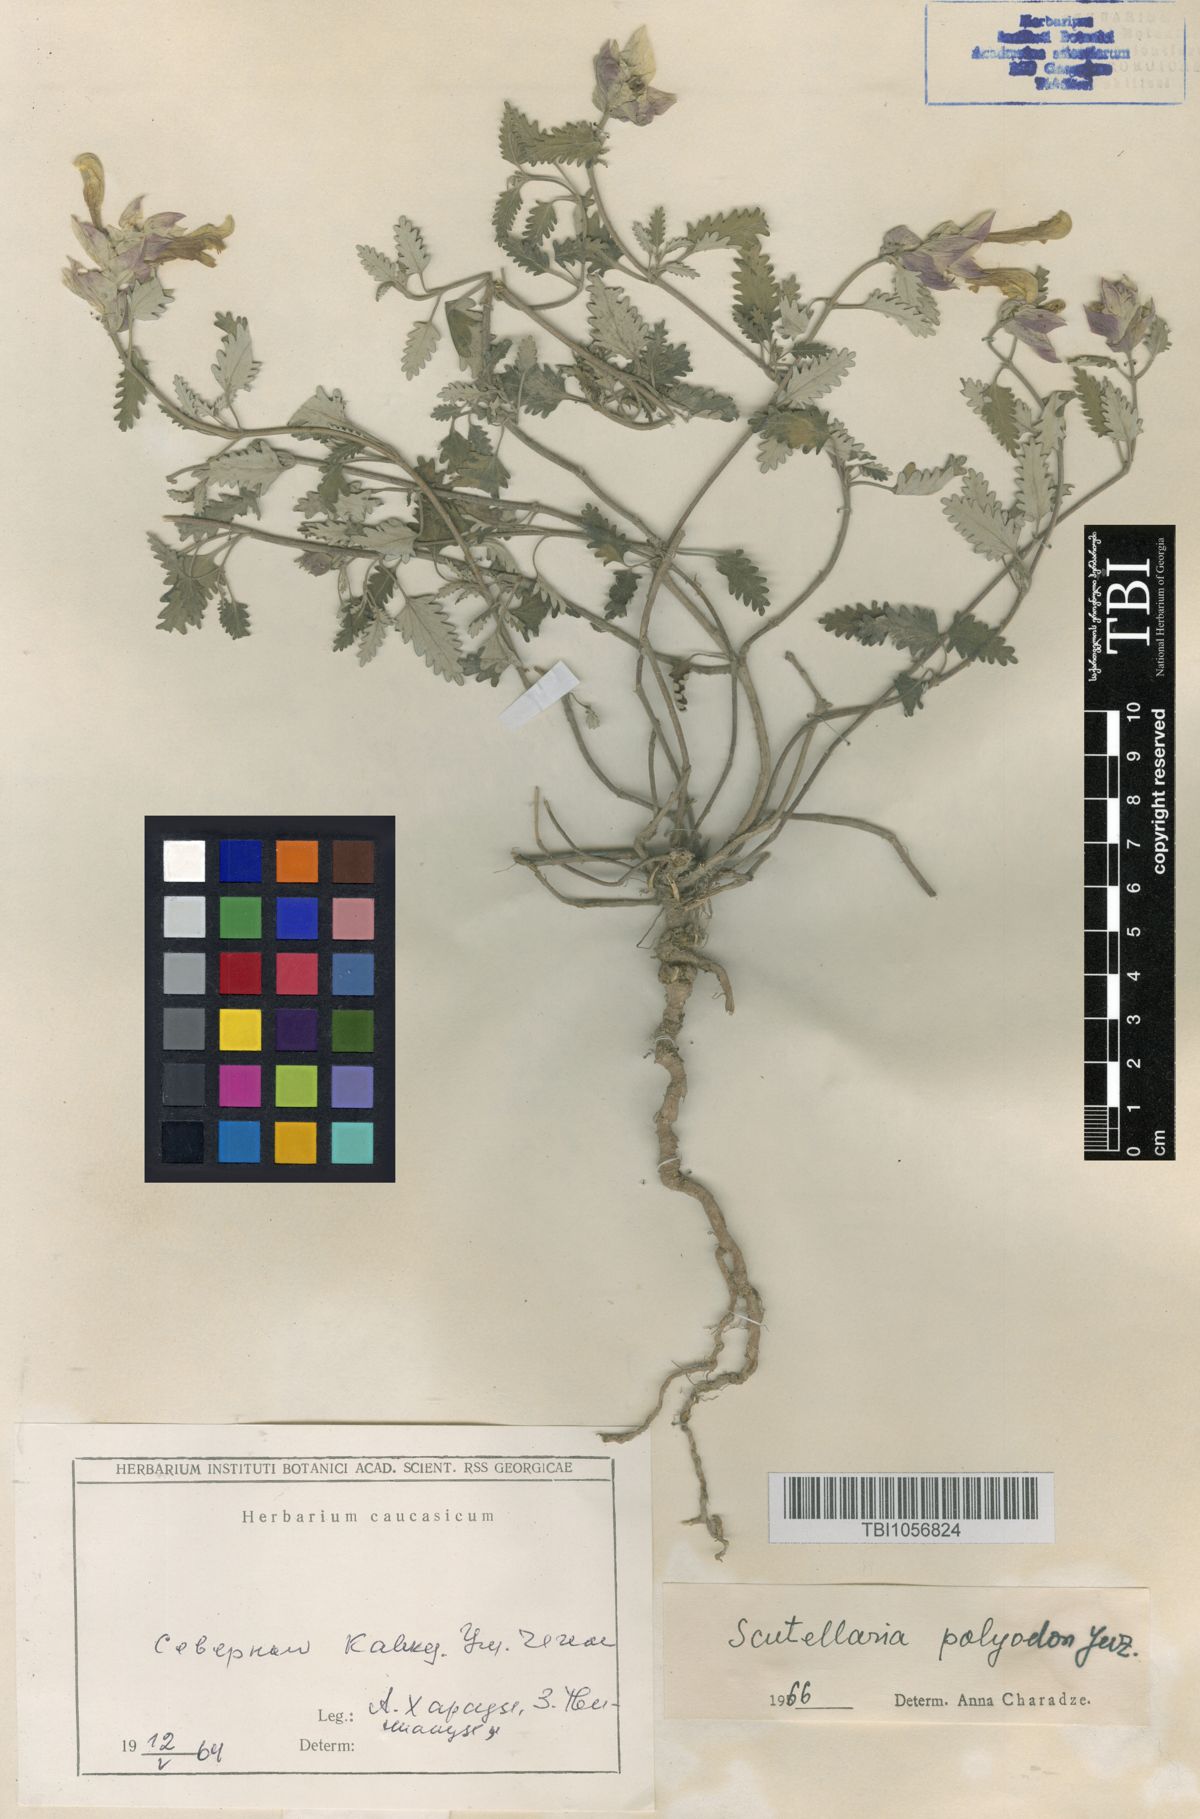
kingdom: Plantae
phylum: Tracheophyta
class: Magnoliopsida
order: Lamiales
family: Lamiaceae
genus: Scutellaria
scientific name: Scutellaria caucasica
